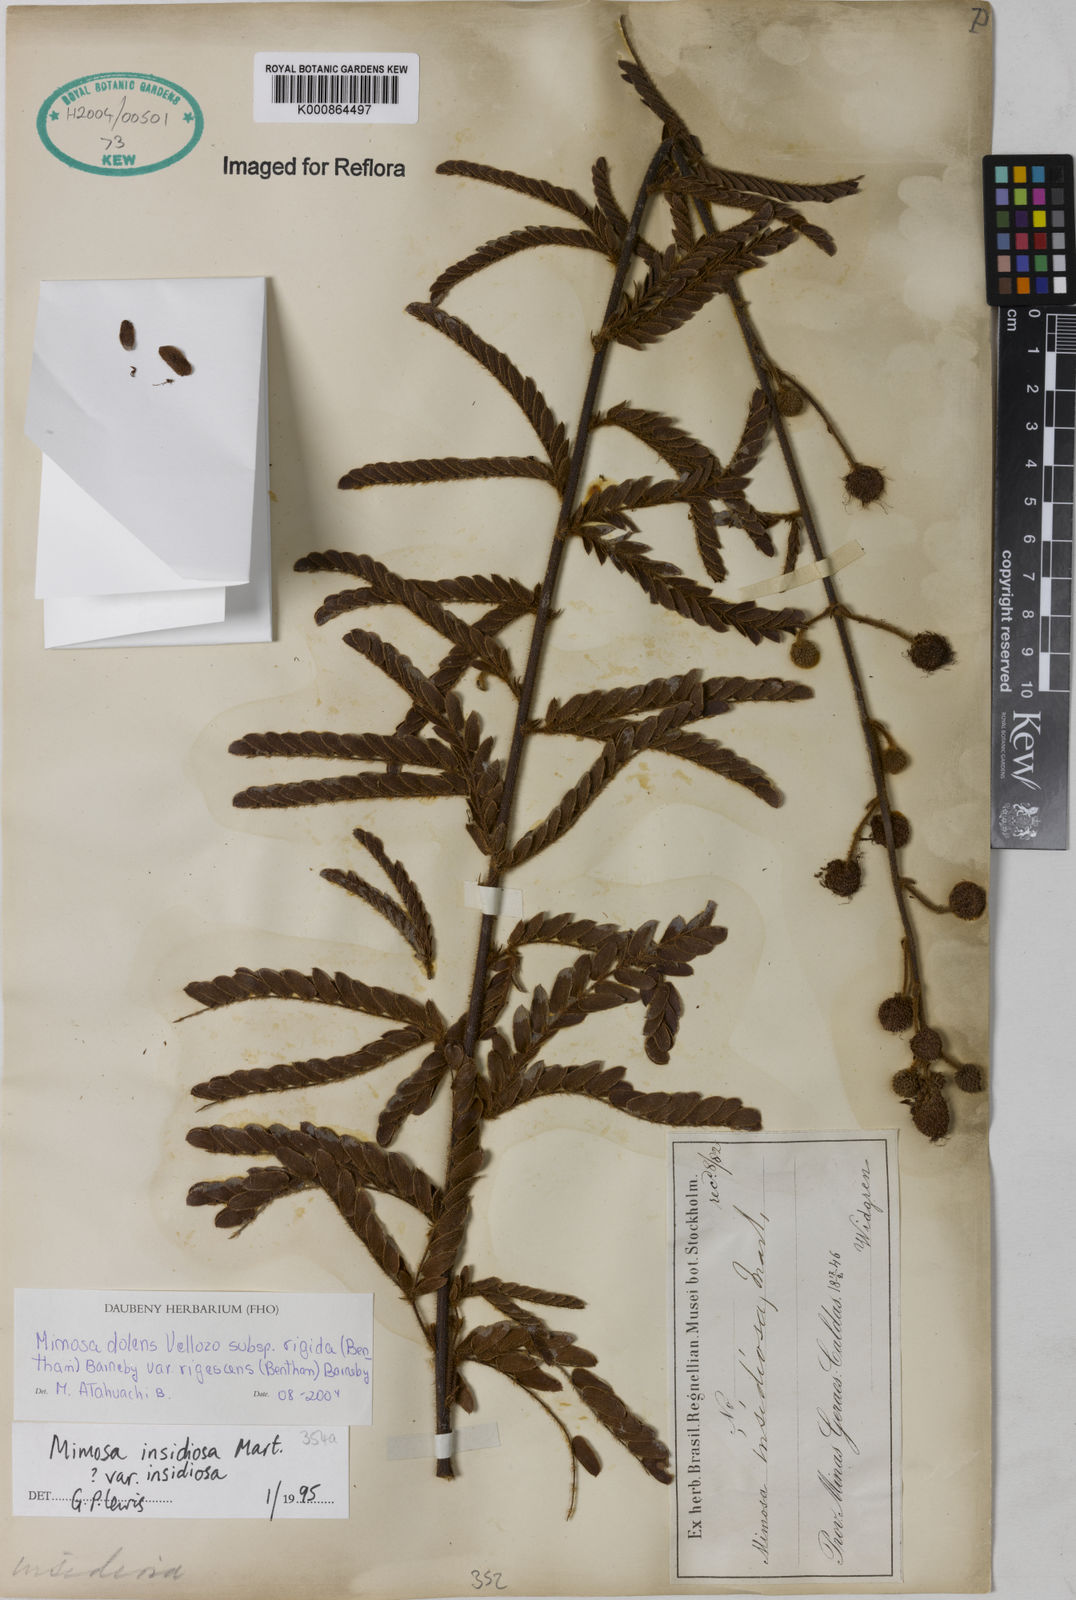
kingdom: Plantae
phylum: Tracheophyta
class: Magnoliopsida
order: Fabales
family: Fabaceae
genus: Mimosa
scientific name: Mimosa dolens
